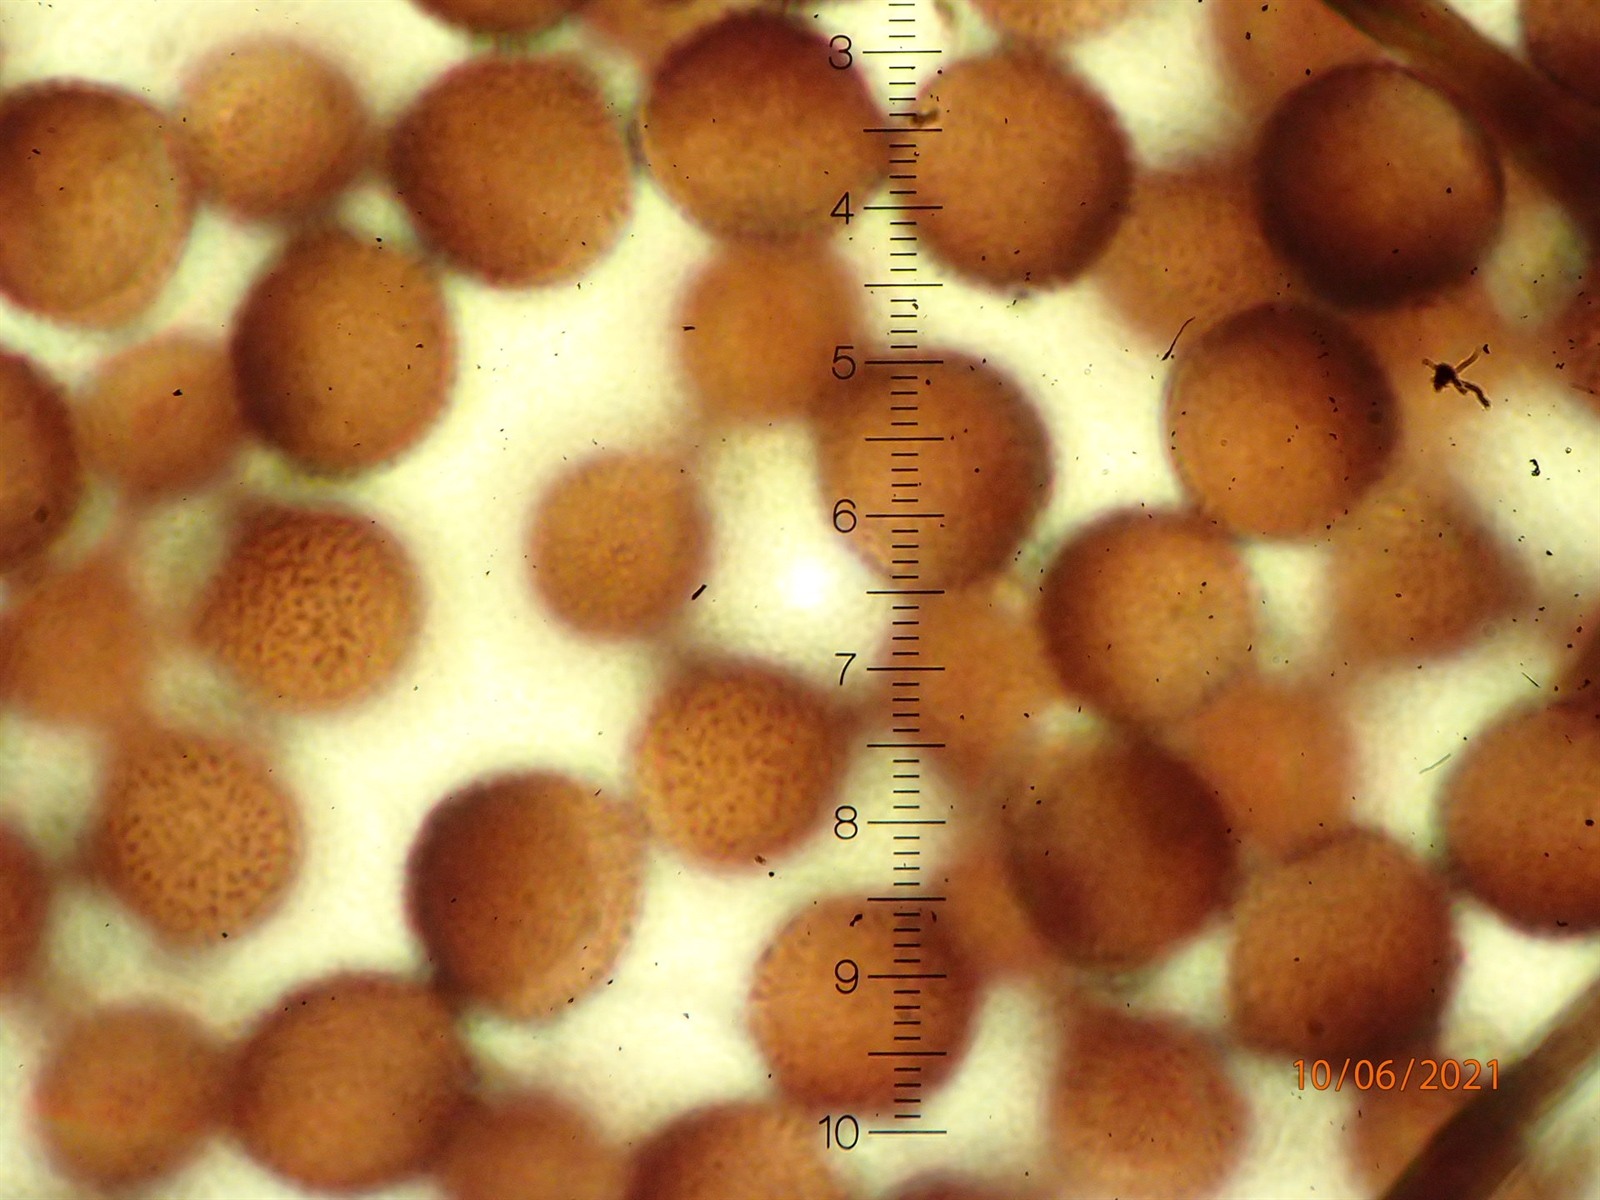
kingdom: Protozoa
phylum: Mycetozoa
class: Myxomycetes
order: Stemonitidales
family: Stemonitidaceae
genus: Lamproderma
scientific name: Lamproderma macrosporum
